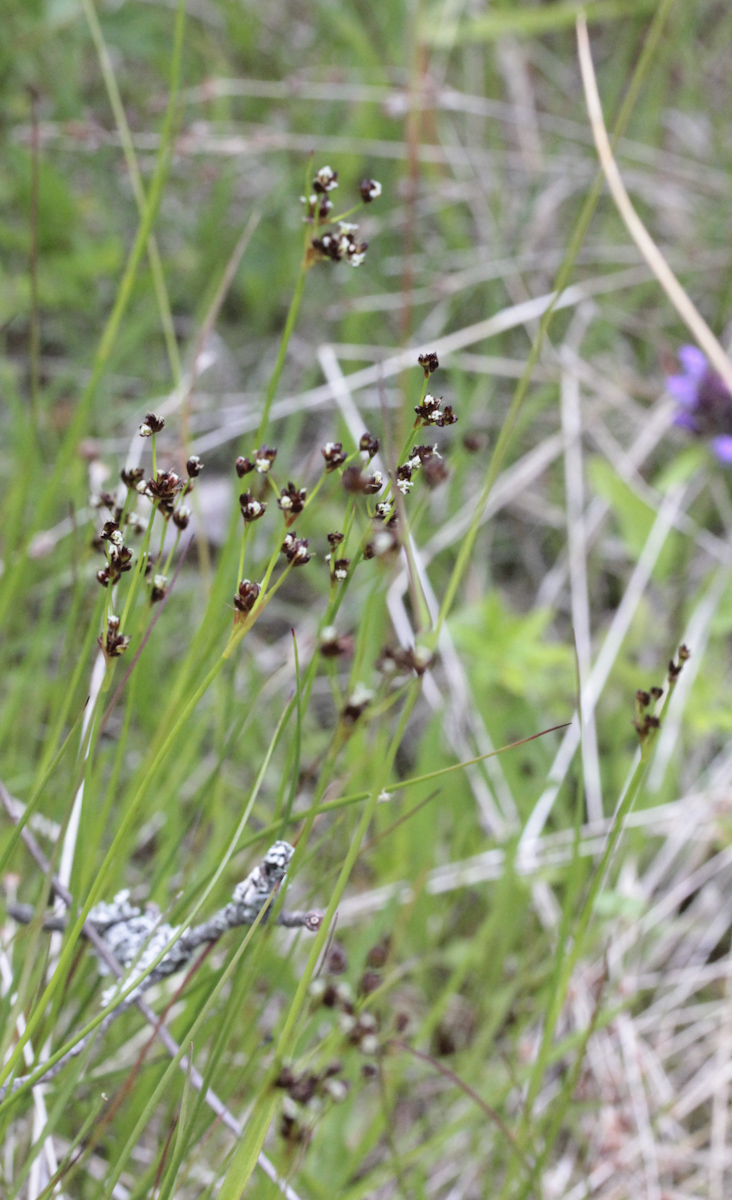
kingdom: Plantae
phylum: Tracheophyta
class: Liliopsida
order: Poales
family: Juncaceae
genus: Luzula
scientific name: Luzula multiflora
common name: Heath wood-rush
